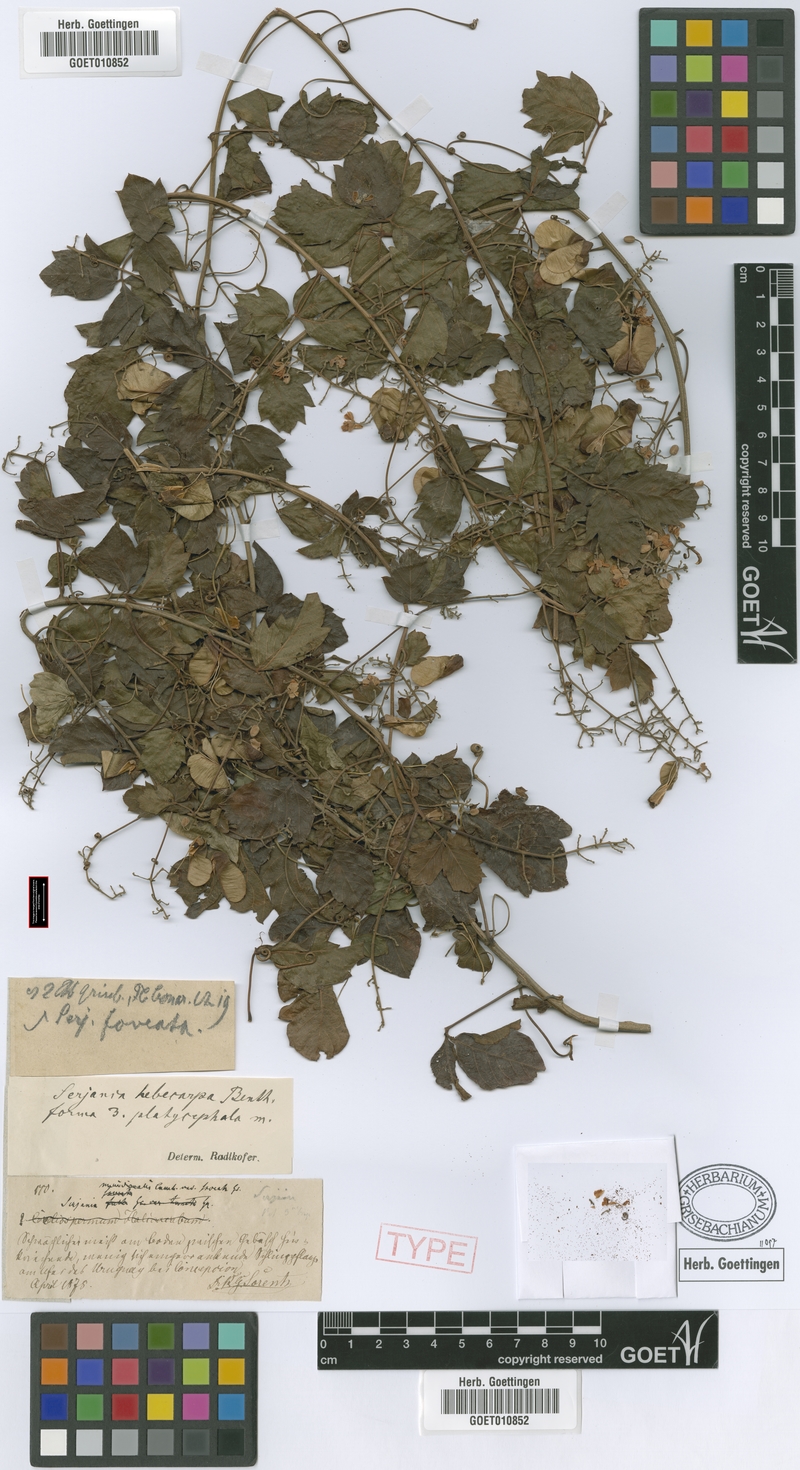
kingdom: Plantae
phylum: Tracheophyta
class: Magnoliopsida
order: Sapindales
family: Sapindaceae
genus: Serjania
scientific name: Serjania hebecarpa
